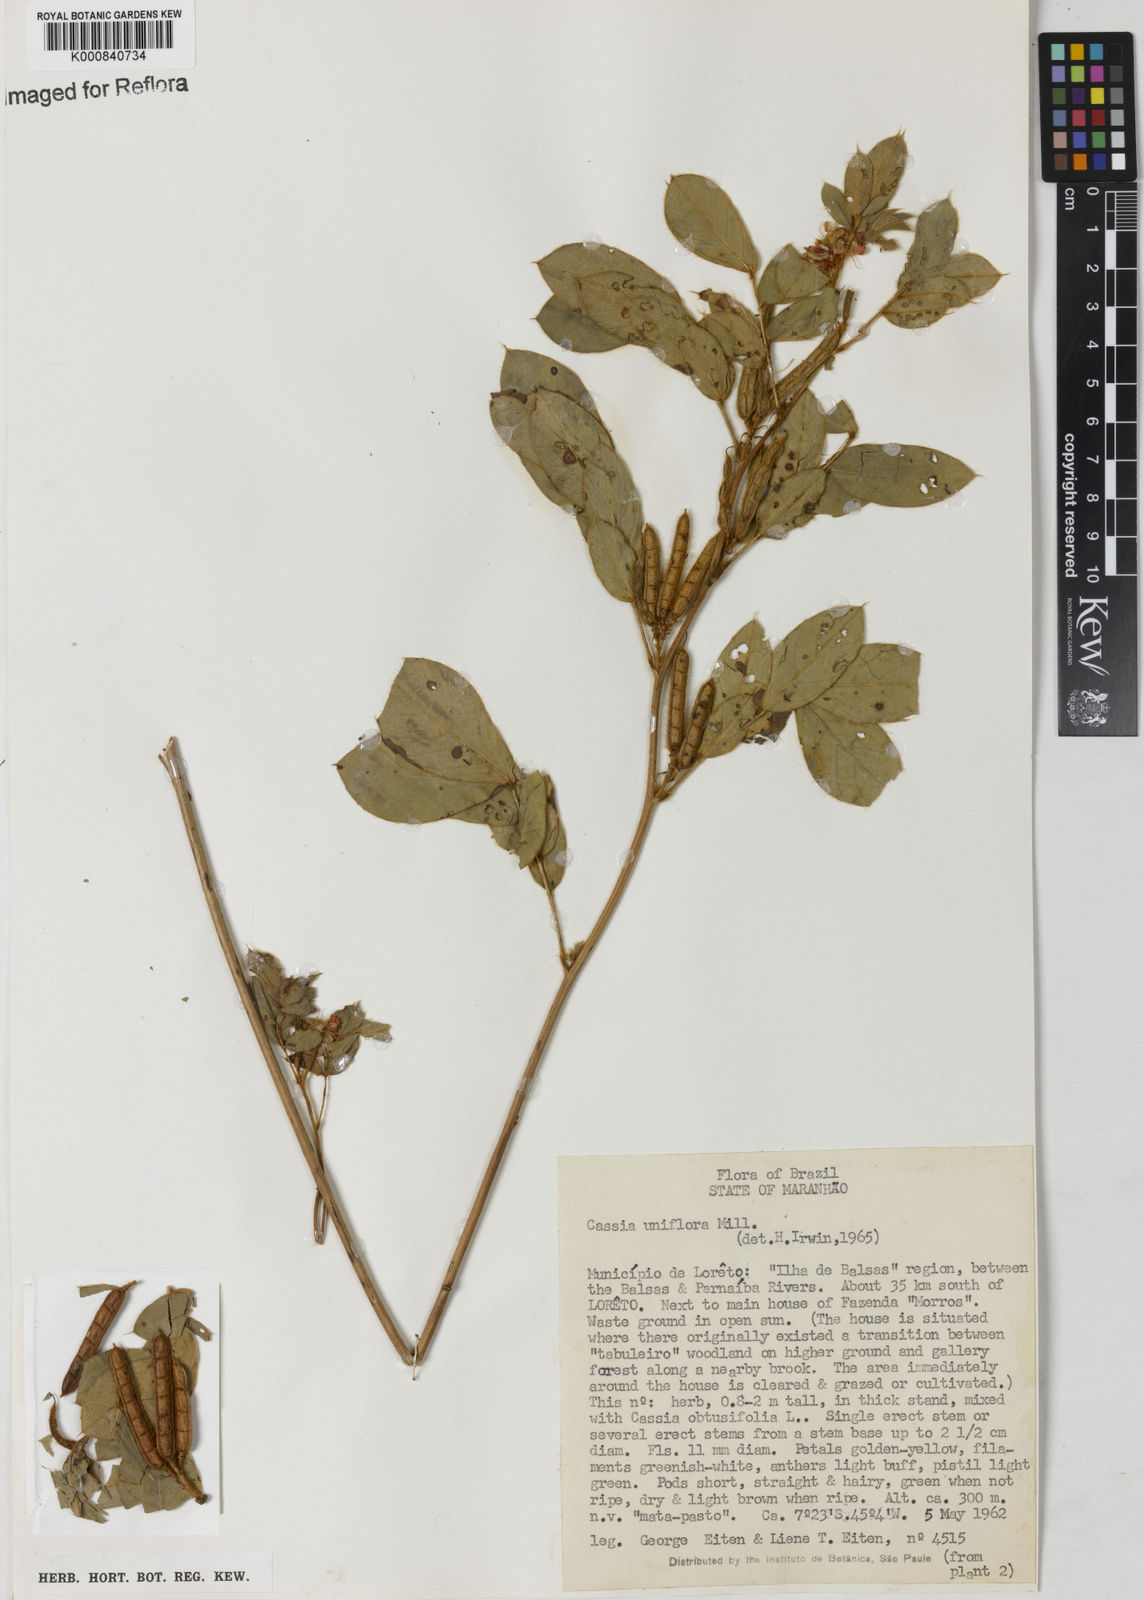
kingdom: Plantae
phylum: Tracheophyta
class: Magnoliopsida
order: Fabales
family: Fabaceae
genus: Senna
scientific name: Senna uniflora
